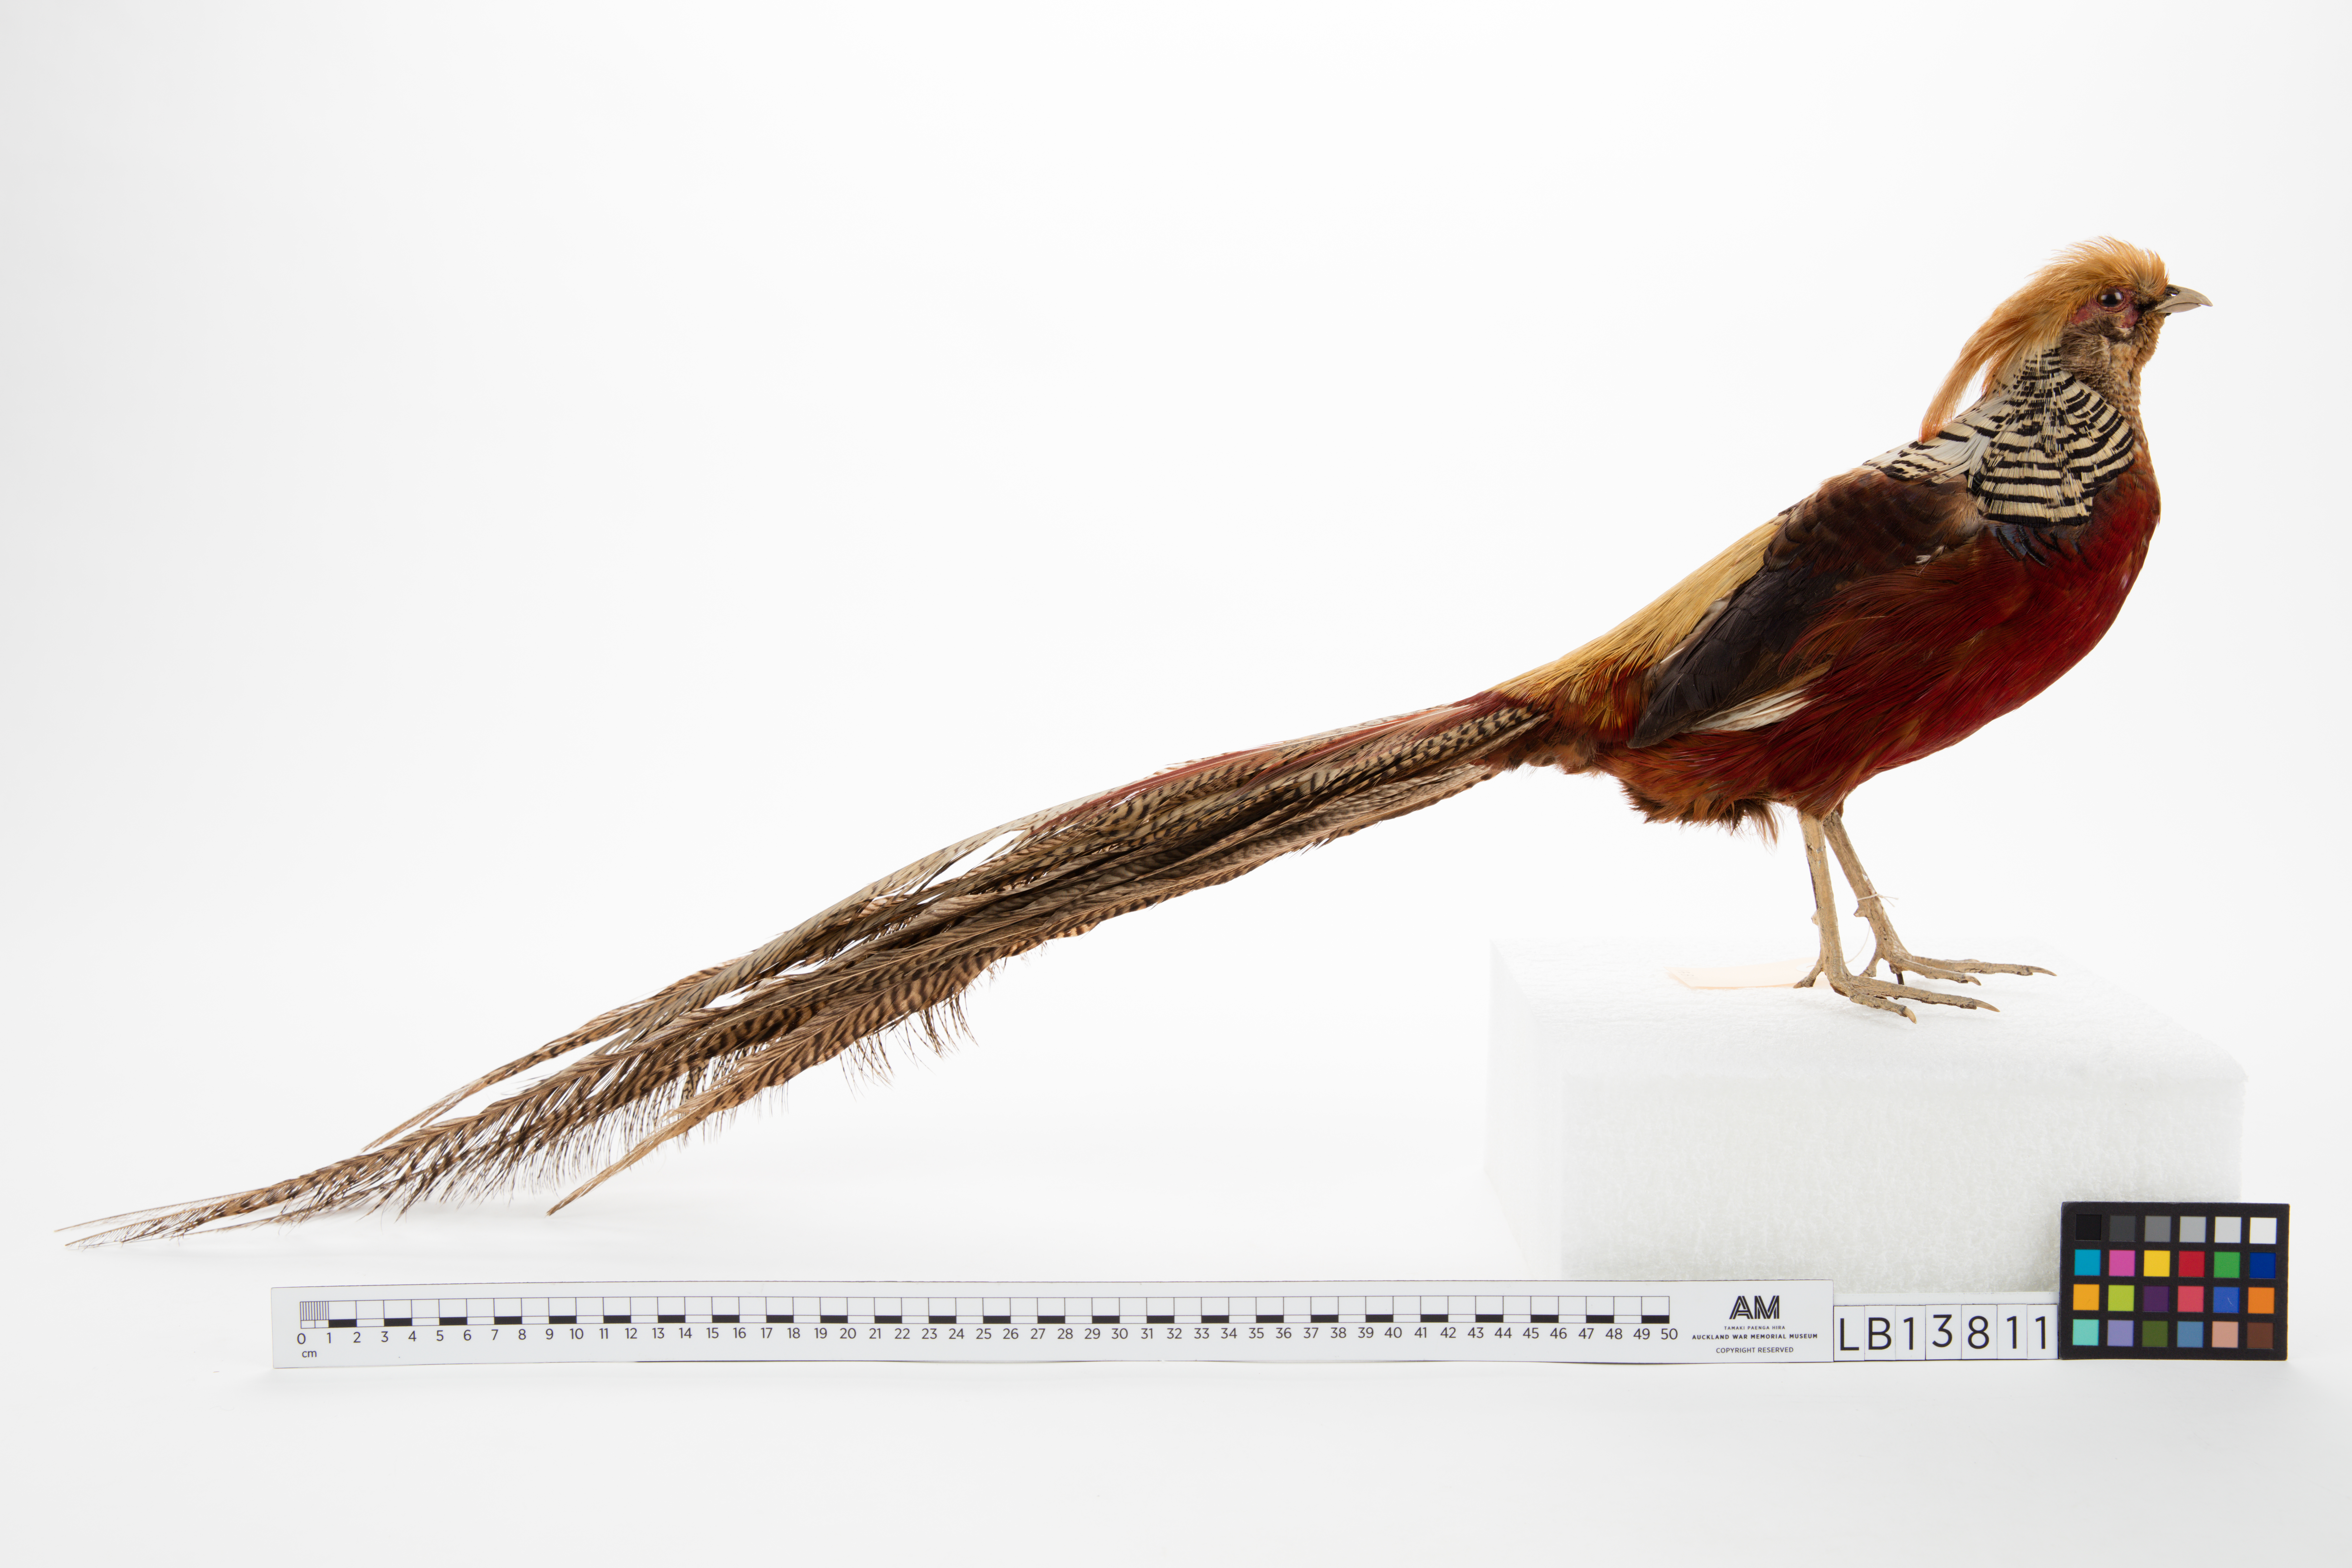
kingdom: Animalia
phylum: Chordata
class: Aves
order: Galliformes
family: Phasianidae
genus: Chrysolophus
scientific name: Chrysolophus pictus
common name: Golden pheasant
